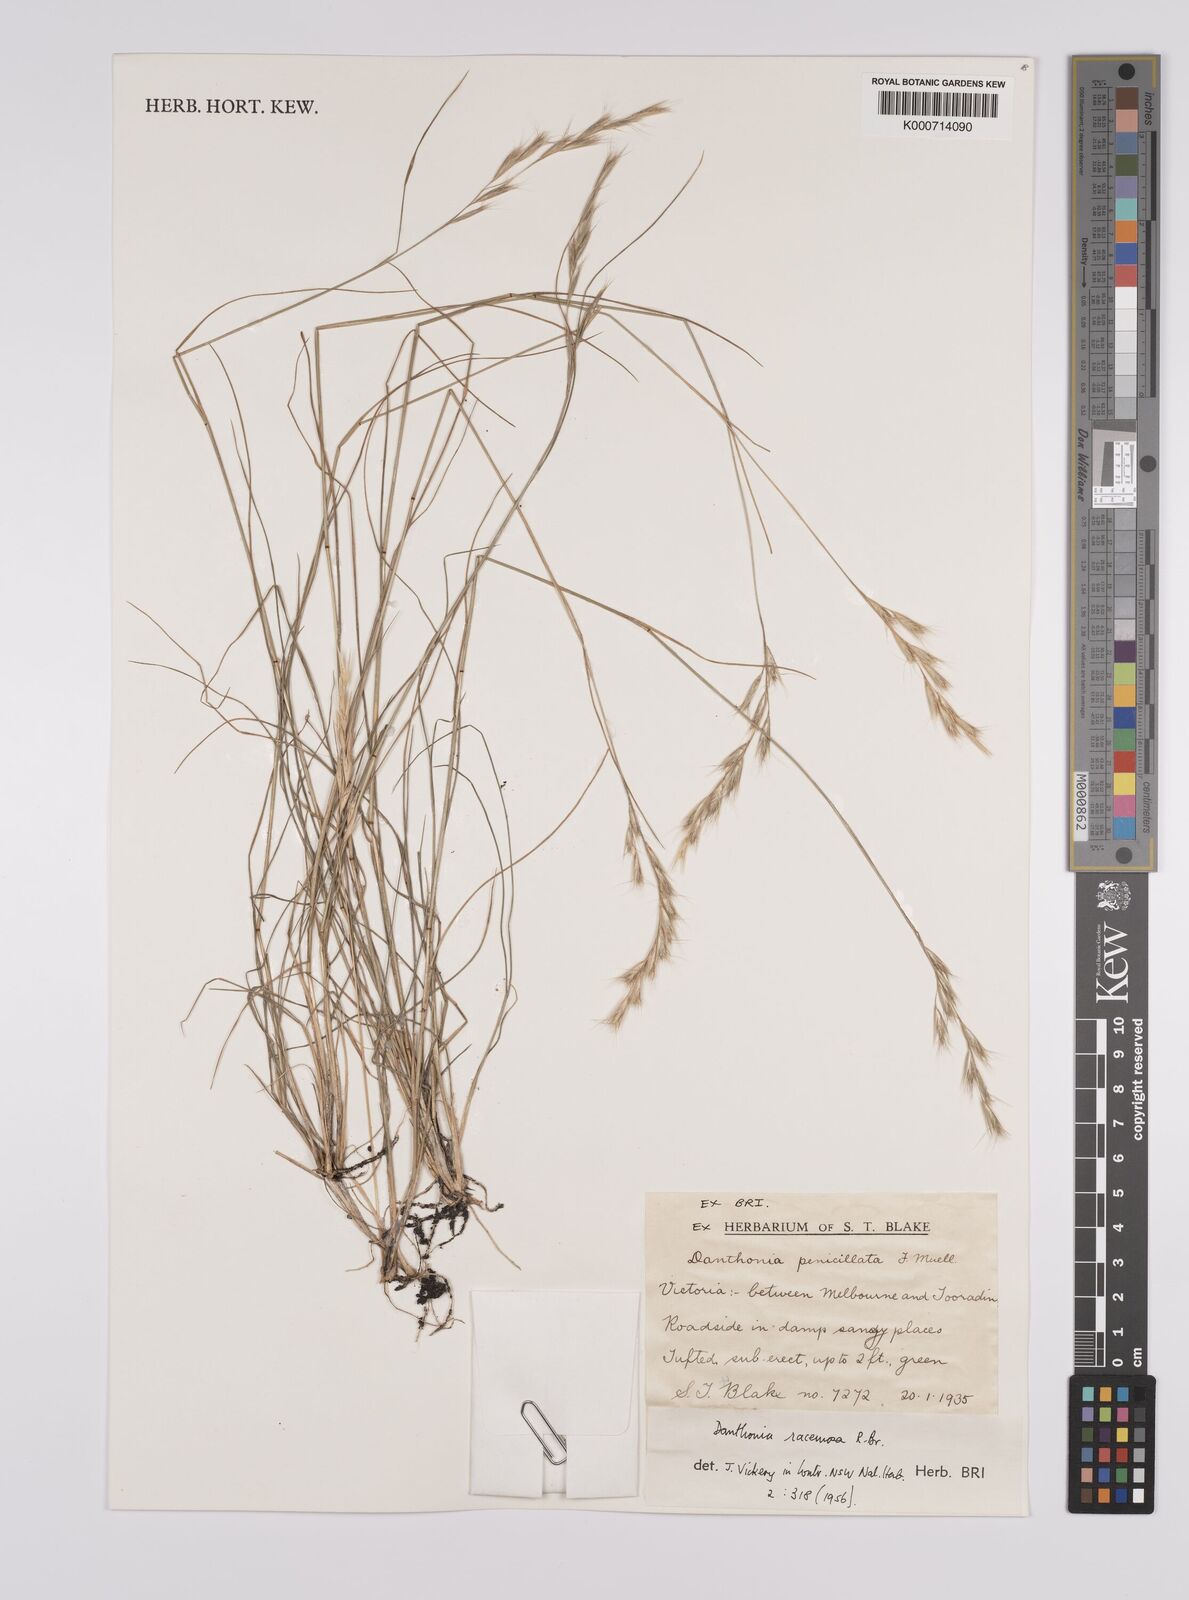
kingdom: Plantae
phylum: Tracheophyta
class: Liliopsida
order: Poales
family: Poaceae
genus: Rytidosperma
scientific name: Rytidosperma racemosum
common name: Wallaby-grass
